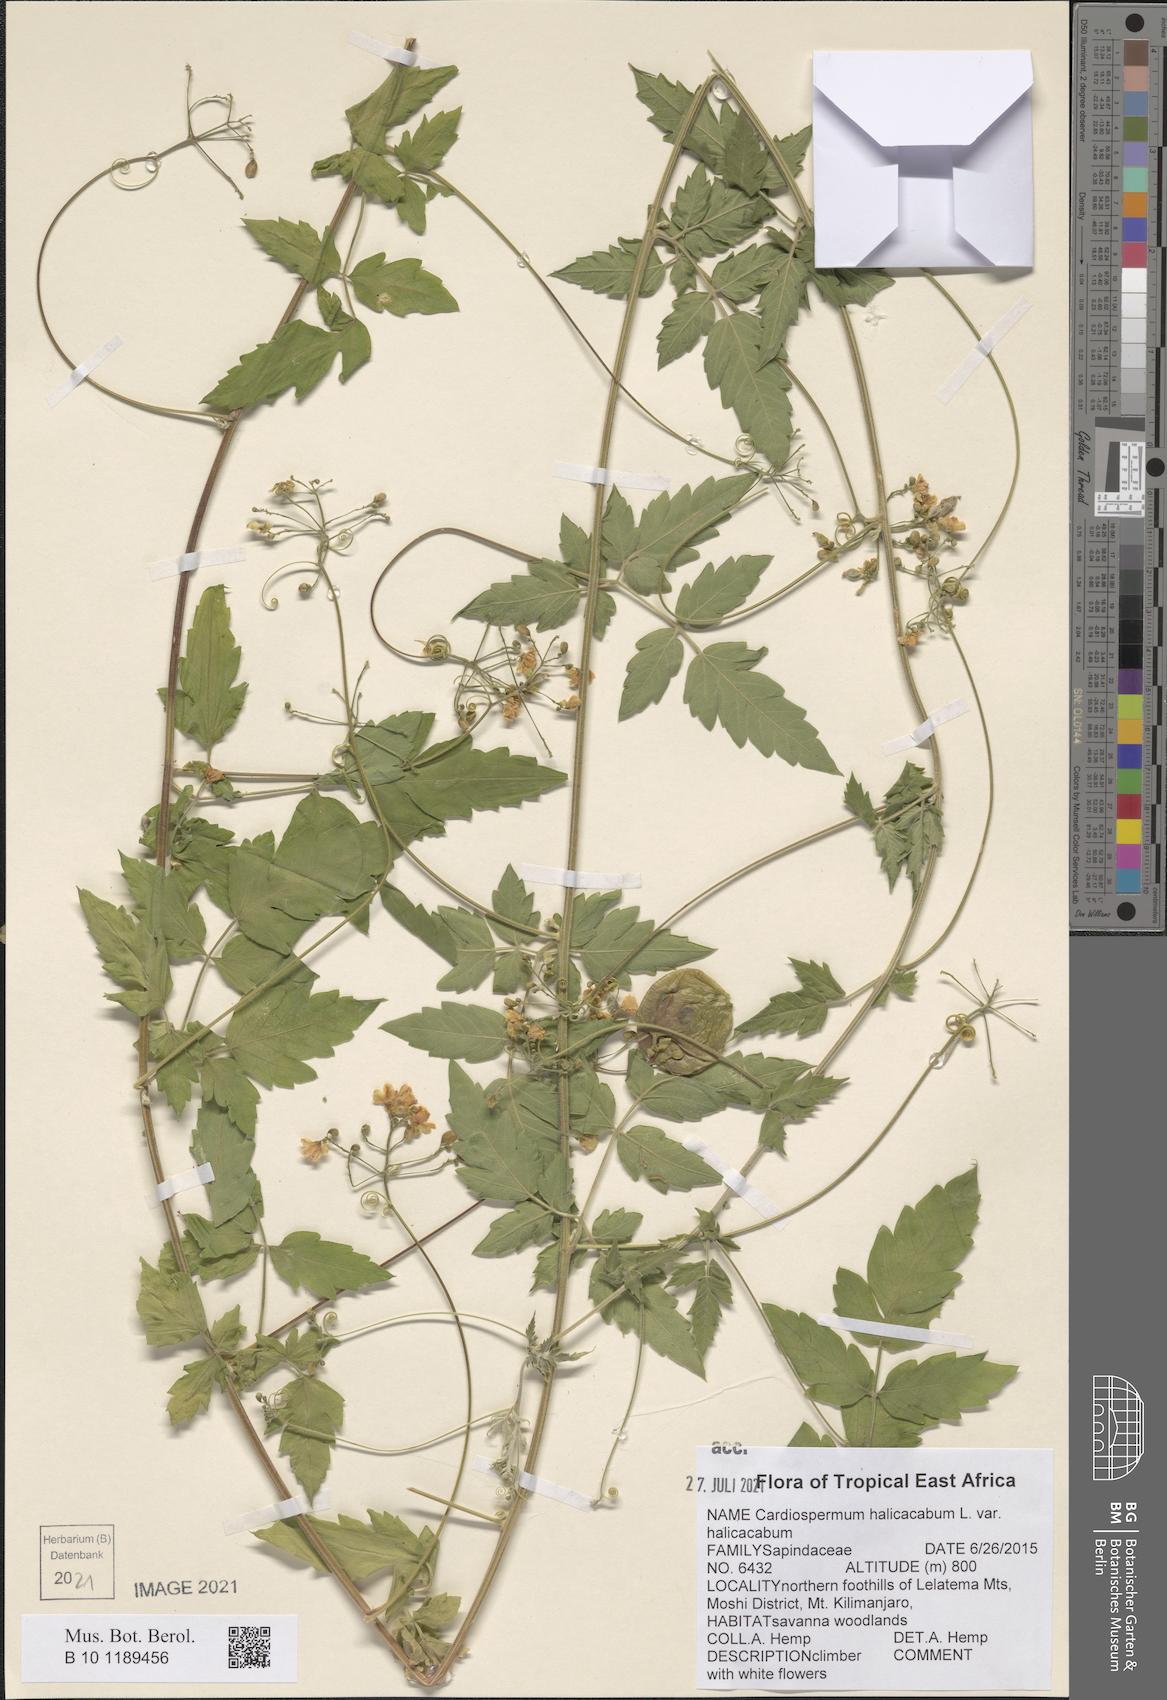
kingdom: Plantae
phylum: Tracheophyta
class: Magnoliopsida
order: Sapindales
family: Sapindaceae
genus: Cardiospermum
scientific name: Cardiospermum halicacabum
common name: Balloon vine
